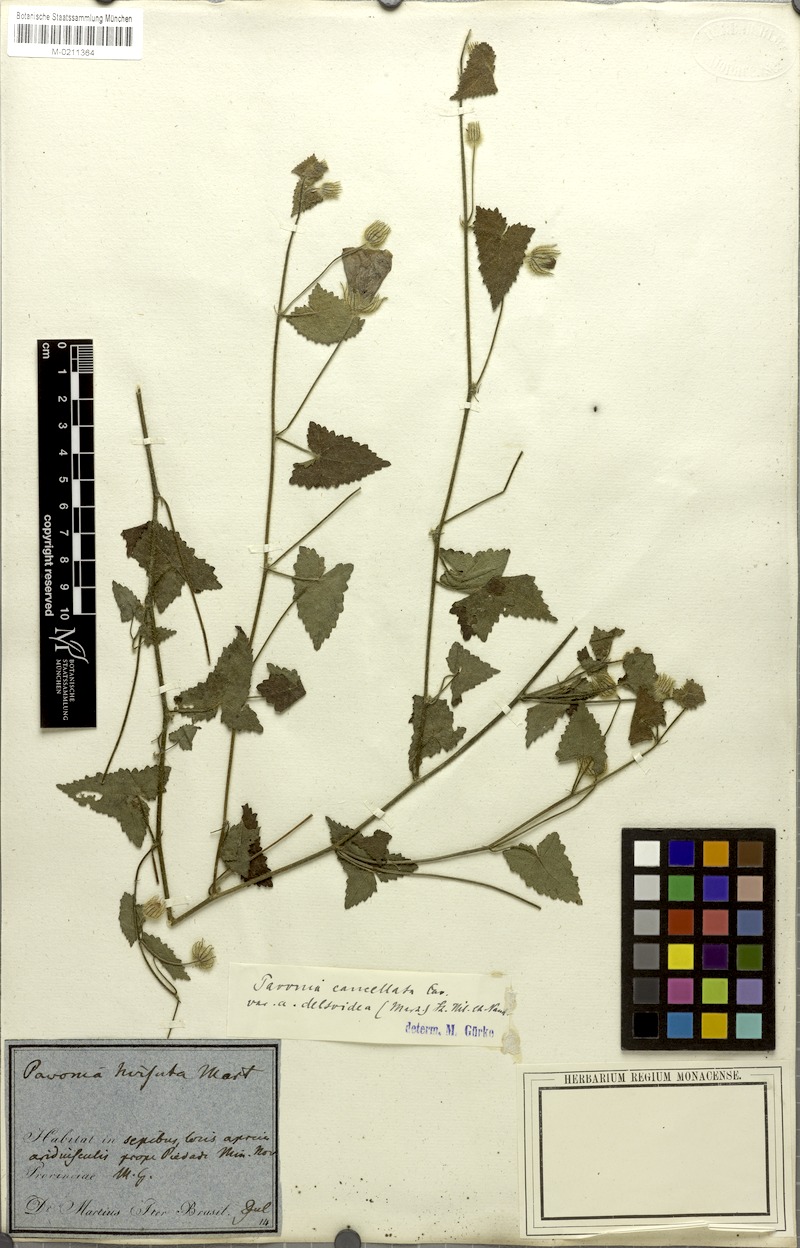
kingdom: Plantae
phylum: Tracheophyta
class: Magnoliopsida
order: Malvales
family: Malvaceae
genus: Pavonia
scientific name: Pavonia cancellata
